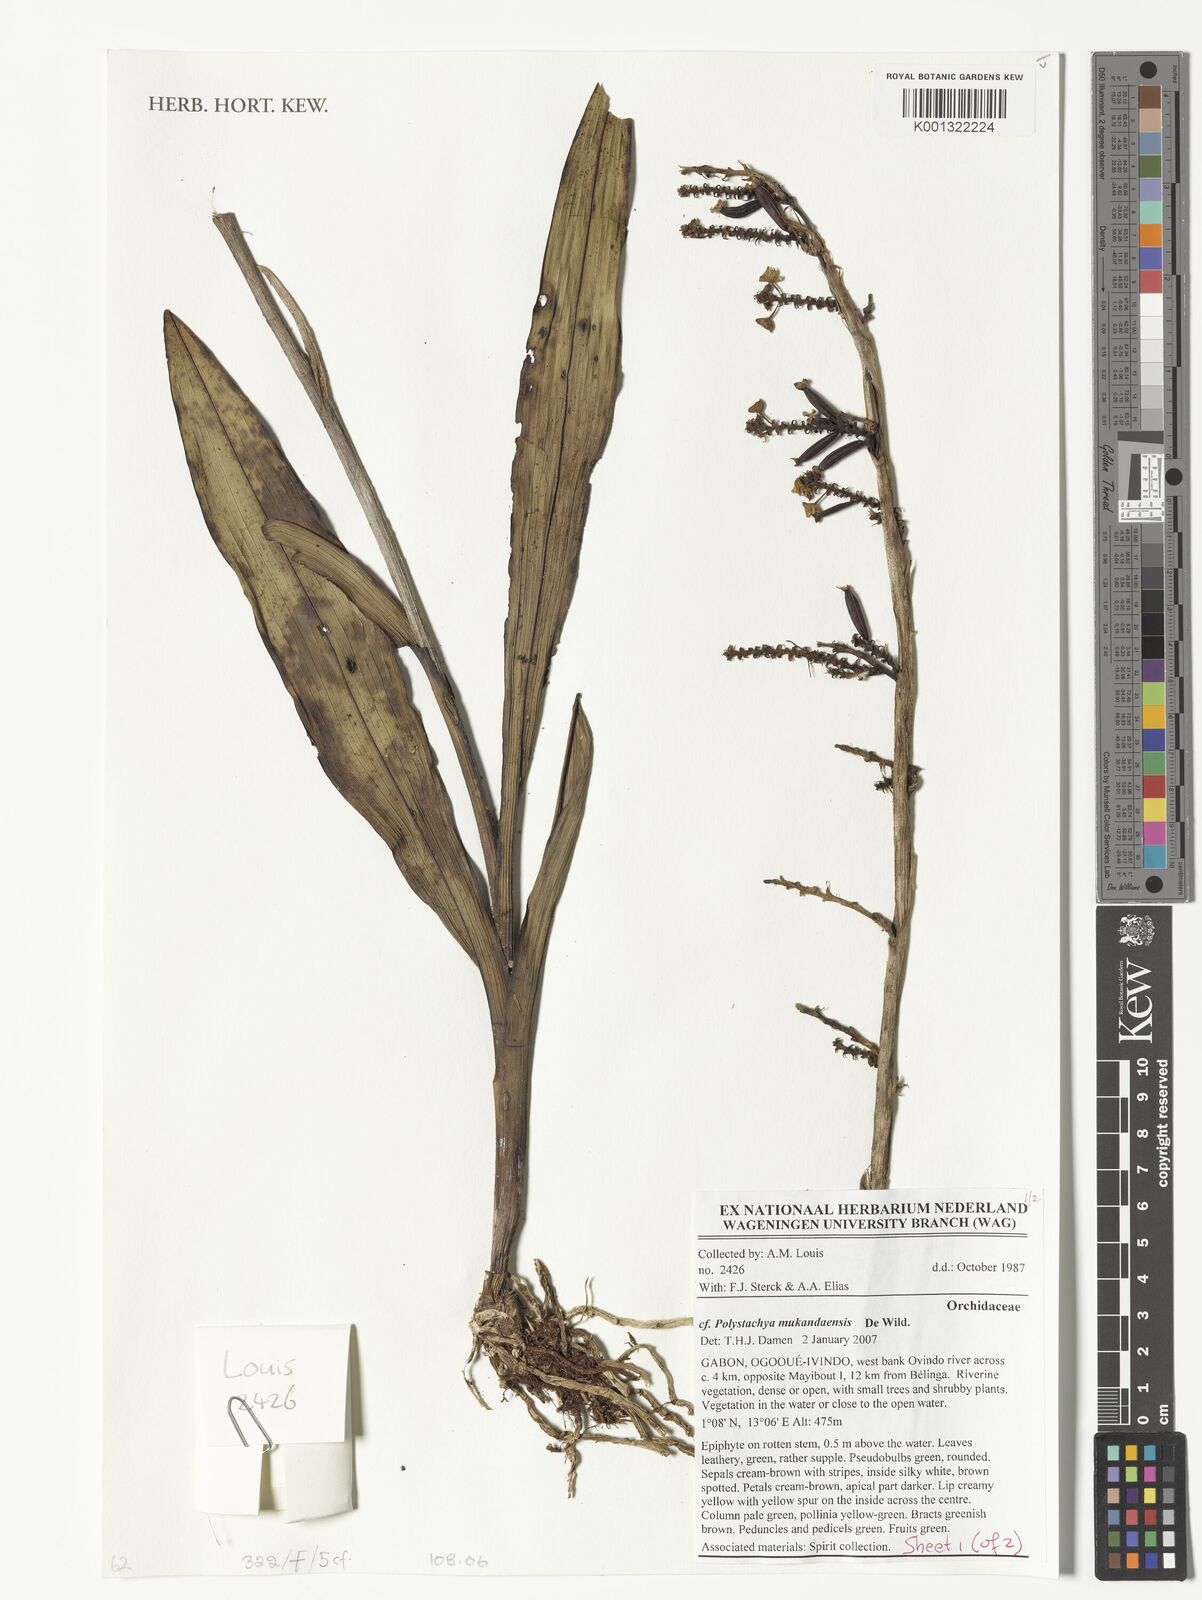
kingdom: Plantae
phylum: Tracheophyta
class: Liliopsida
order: Asparagales
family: Orchidaceae
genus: Polystachya
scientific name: Polystachya mukandaensis
